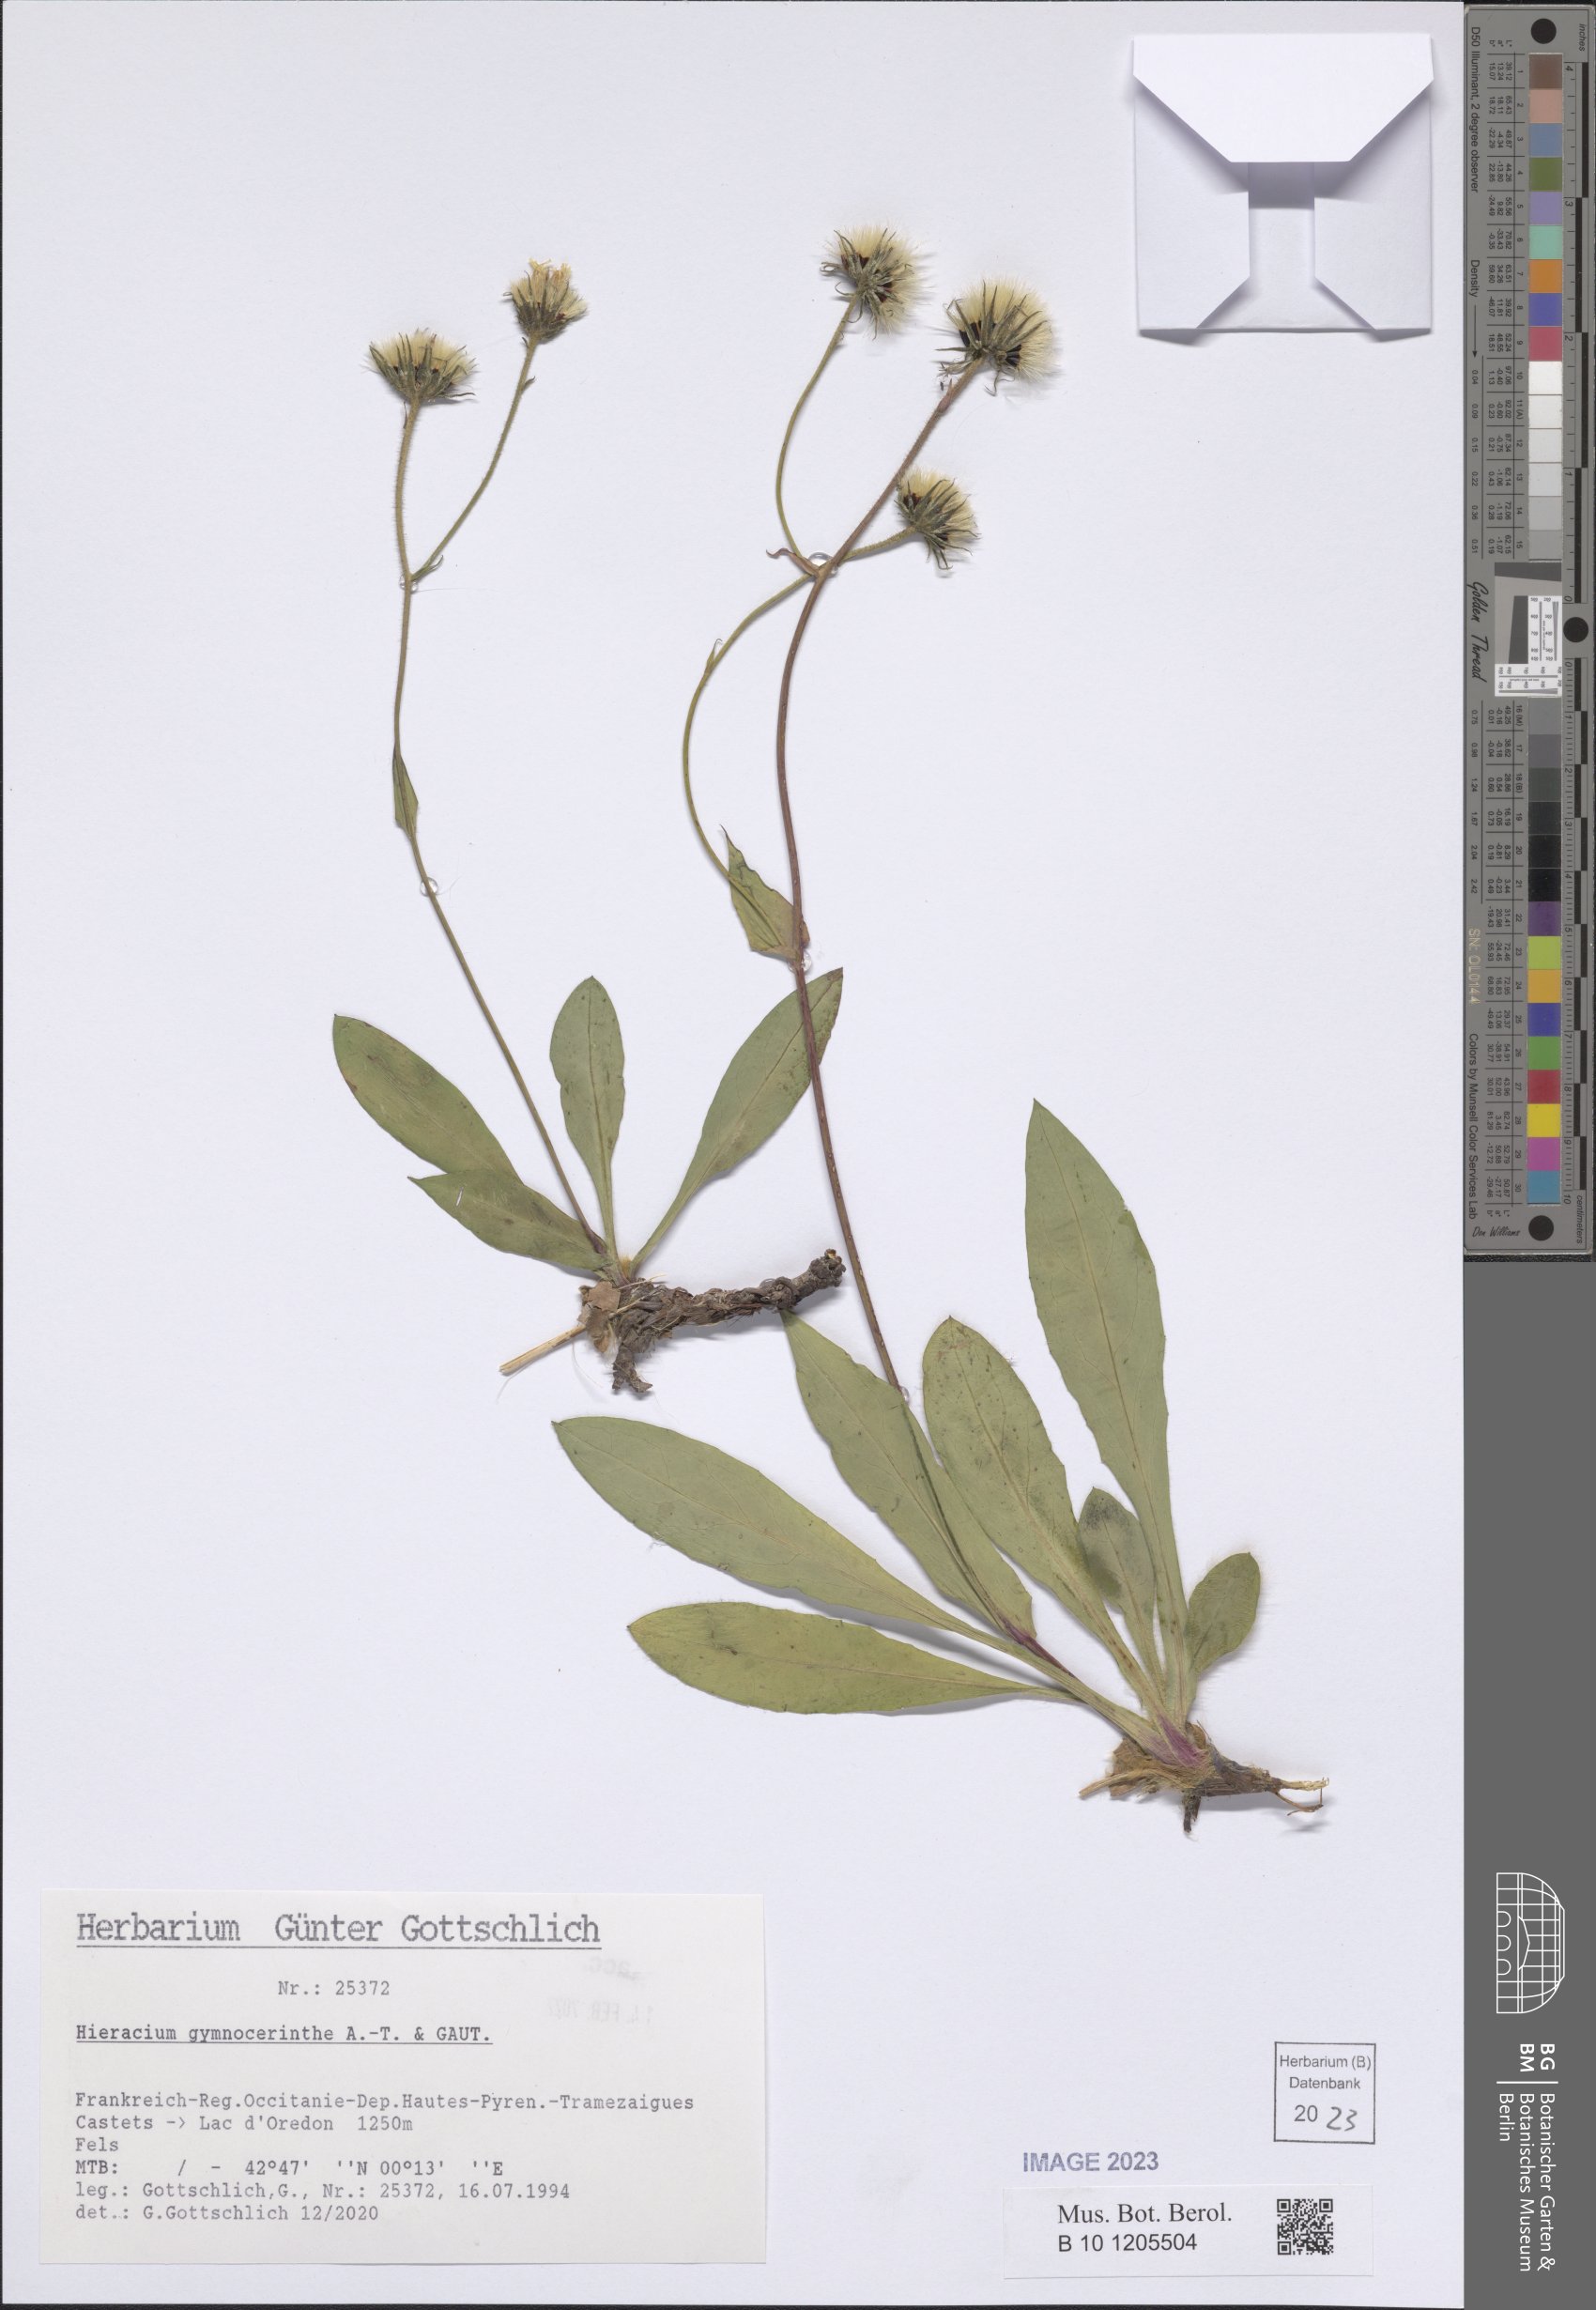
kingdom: Plantae
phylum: Tracheophyta
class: Magnoliopsida
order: Asterales
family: Asteraceae
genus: Hieracium
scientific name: Hieracium gymnocerinthe
